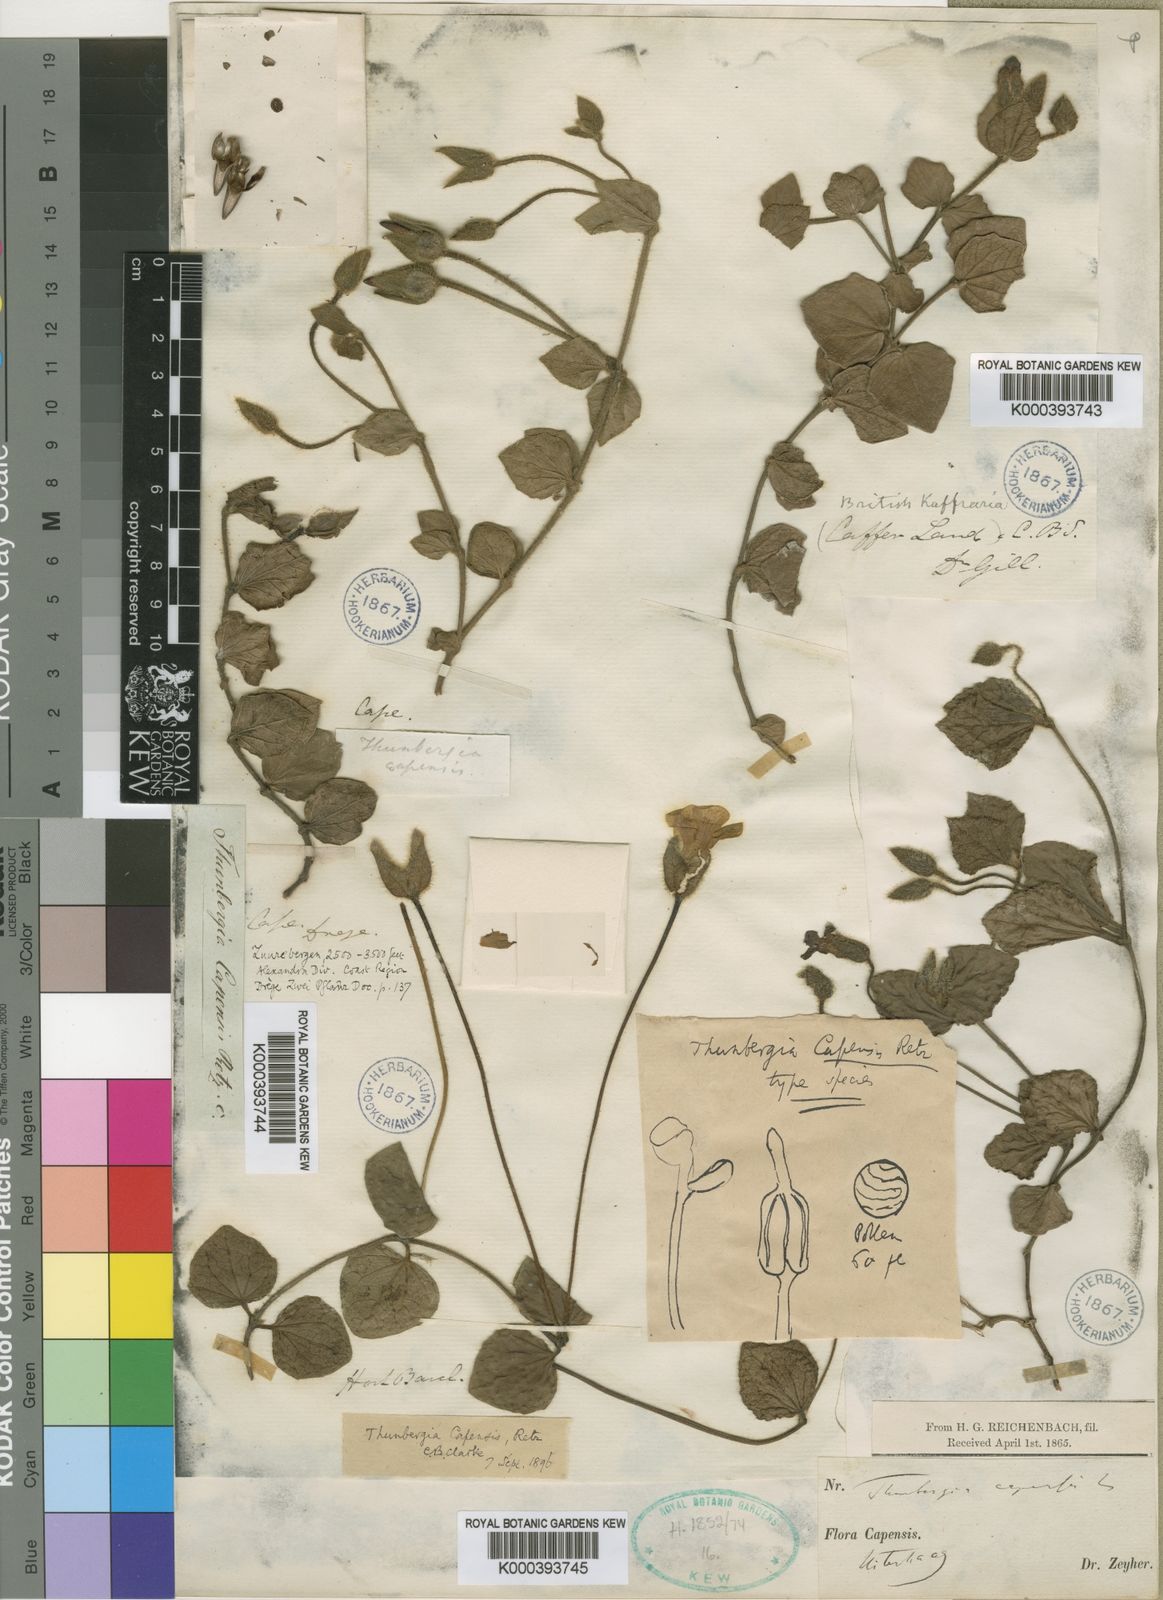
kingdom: Plantae
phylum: Tracheophyta
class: Magnoliopsida
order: Lamiales
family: Acanthaceae
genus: Thunbergia
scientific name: Thunbergia capensis
